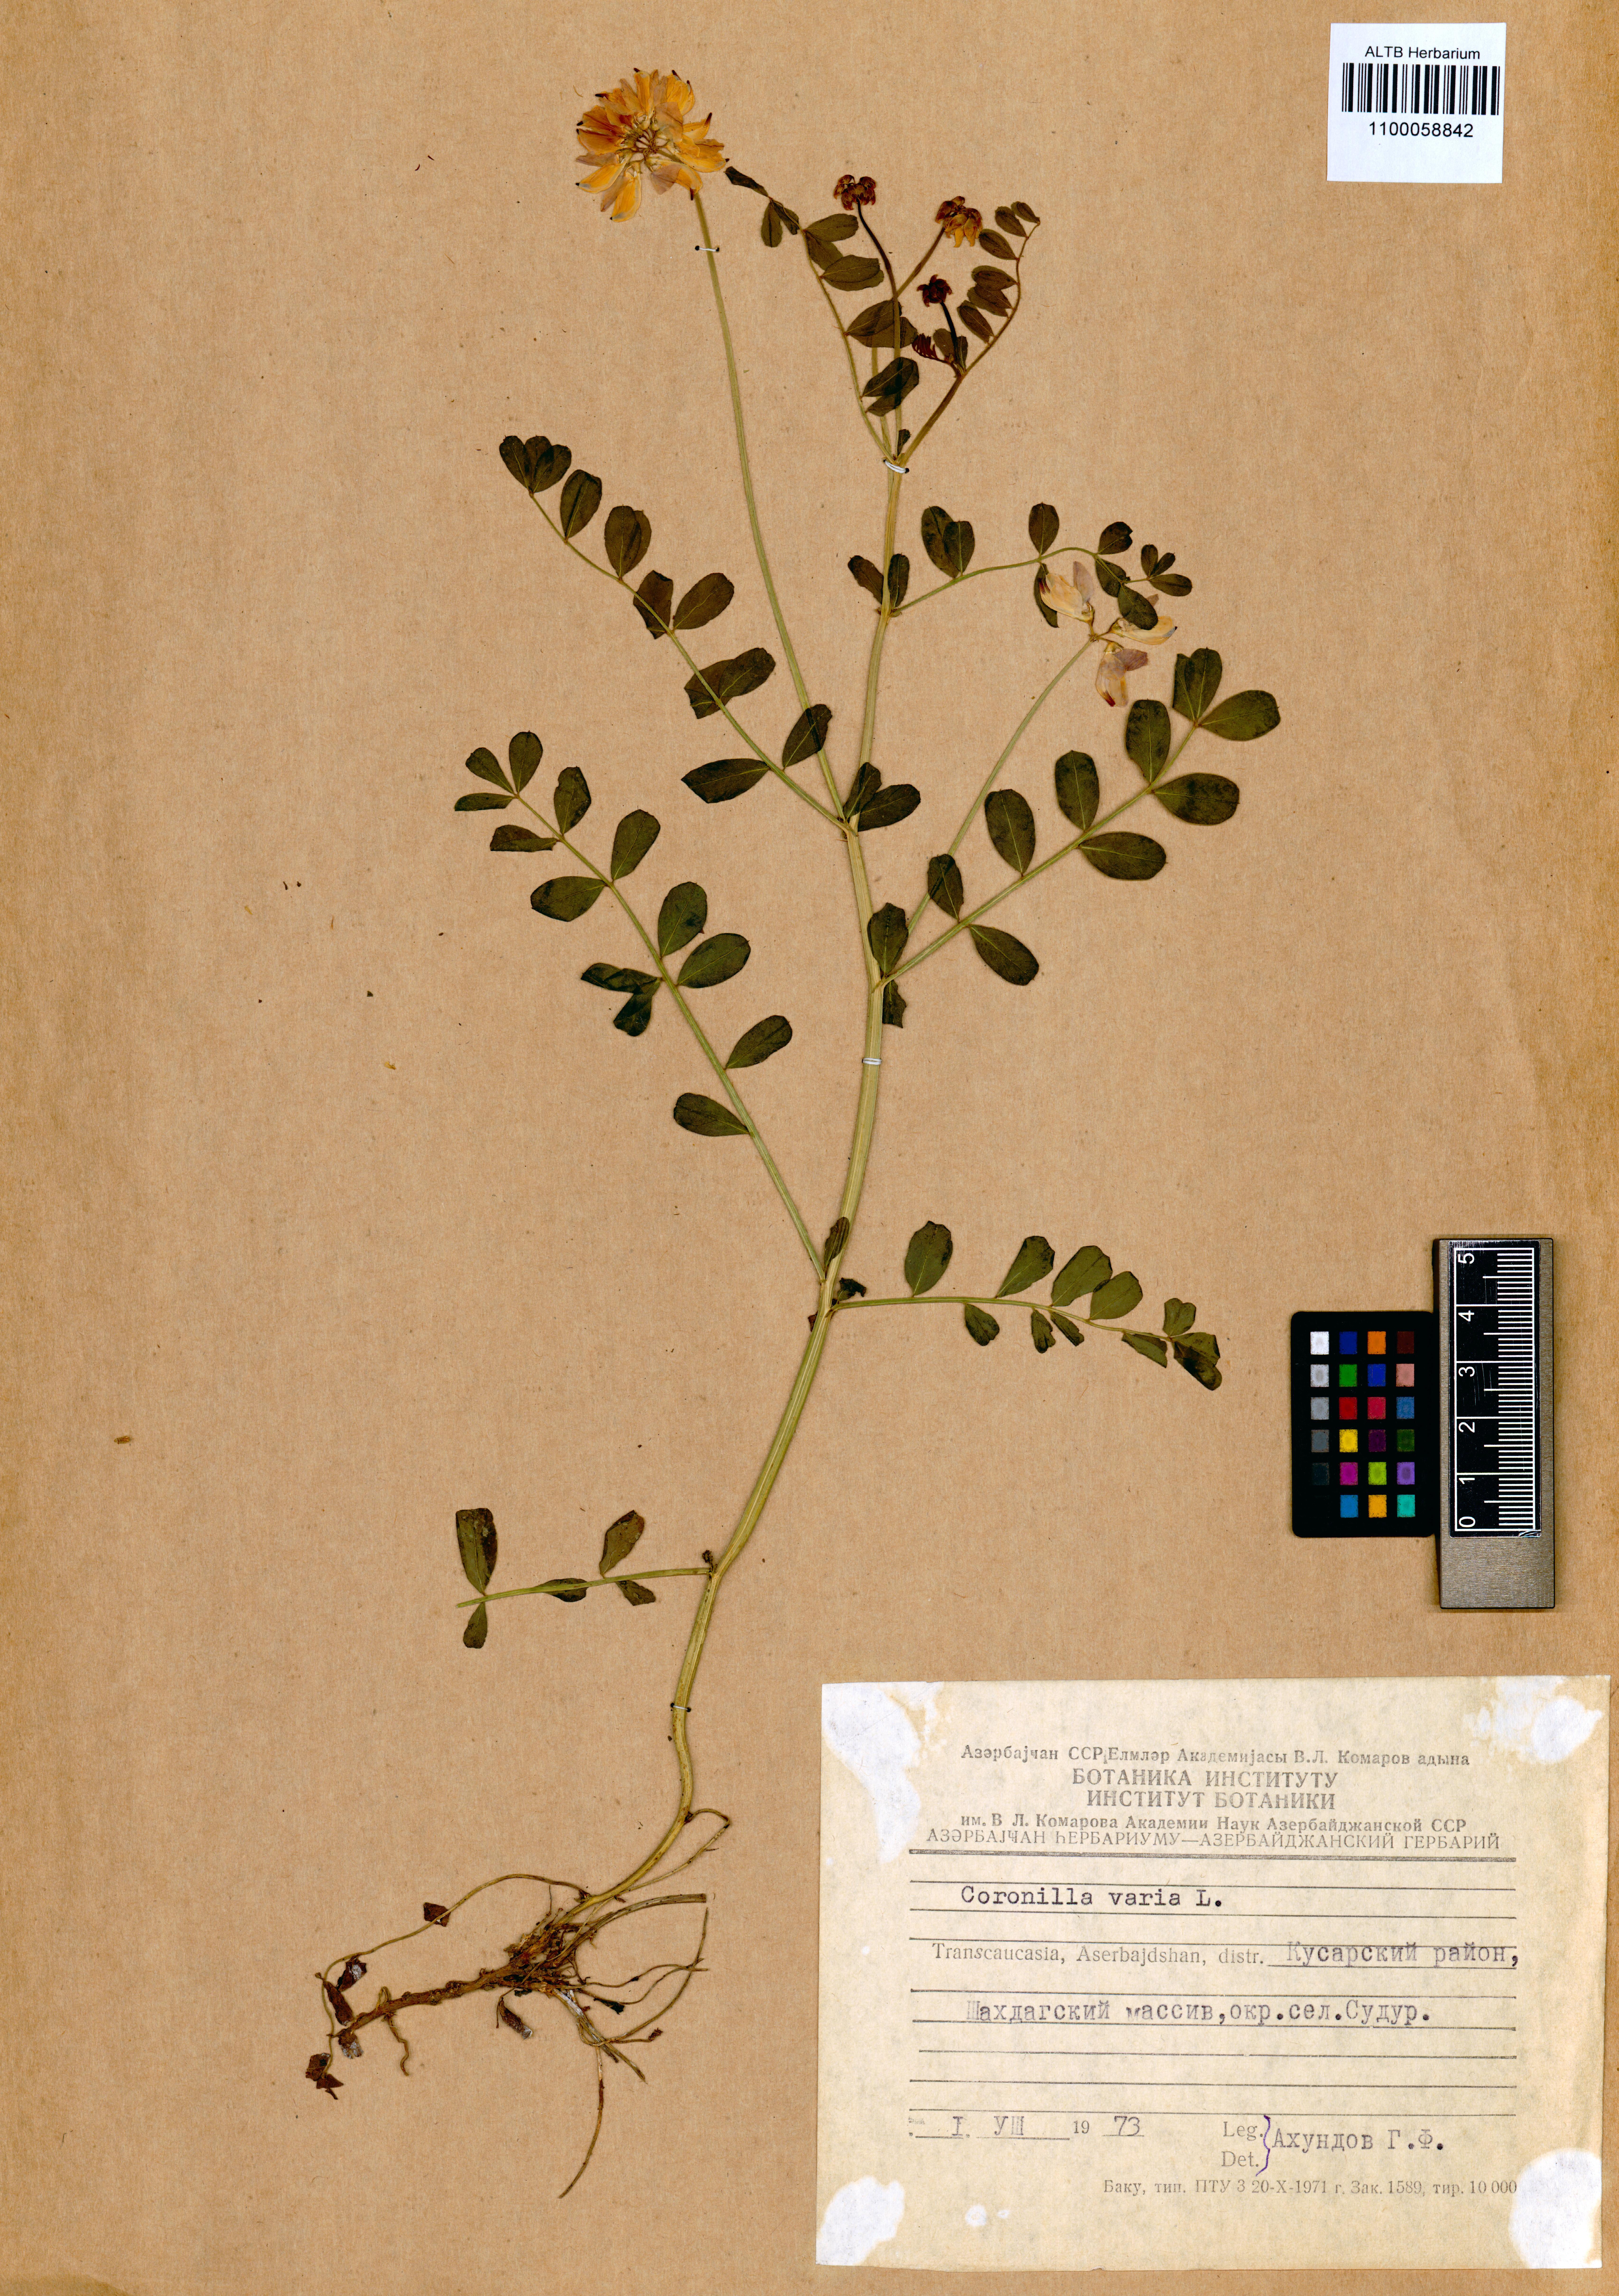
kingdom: Plantae
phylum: Tracheophyta
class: Magnoliopsida
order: Fabales
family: Fabaceae
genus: Coronilla
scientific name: Coronilla varia
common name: Crownvetch
